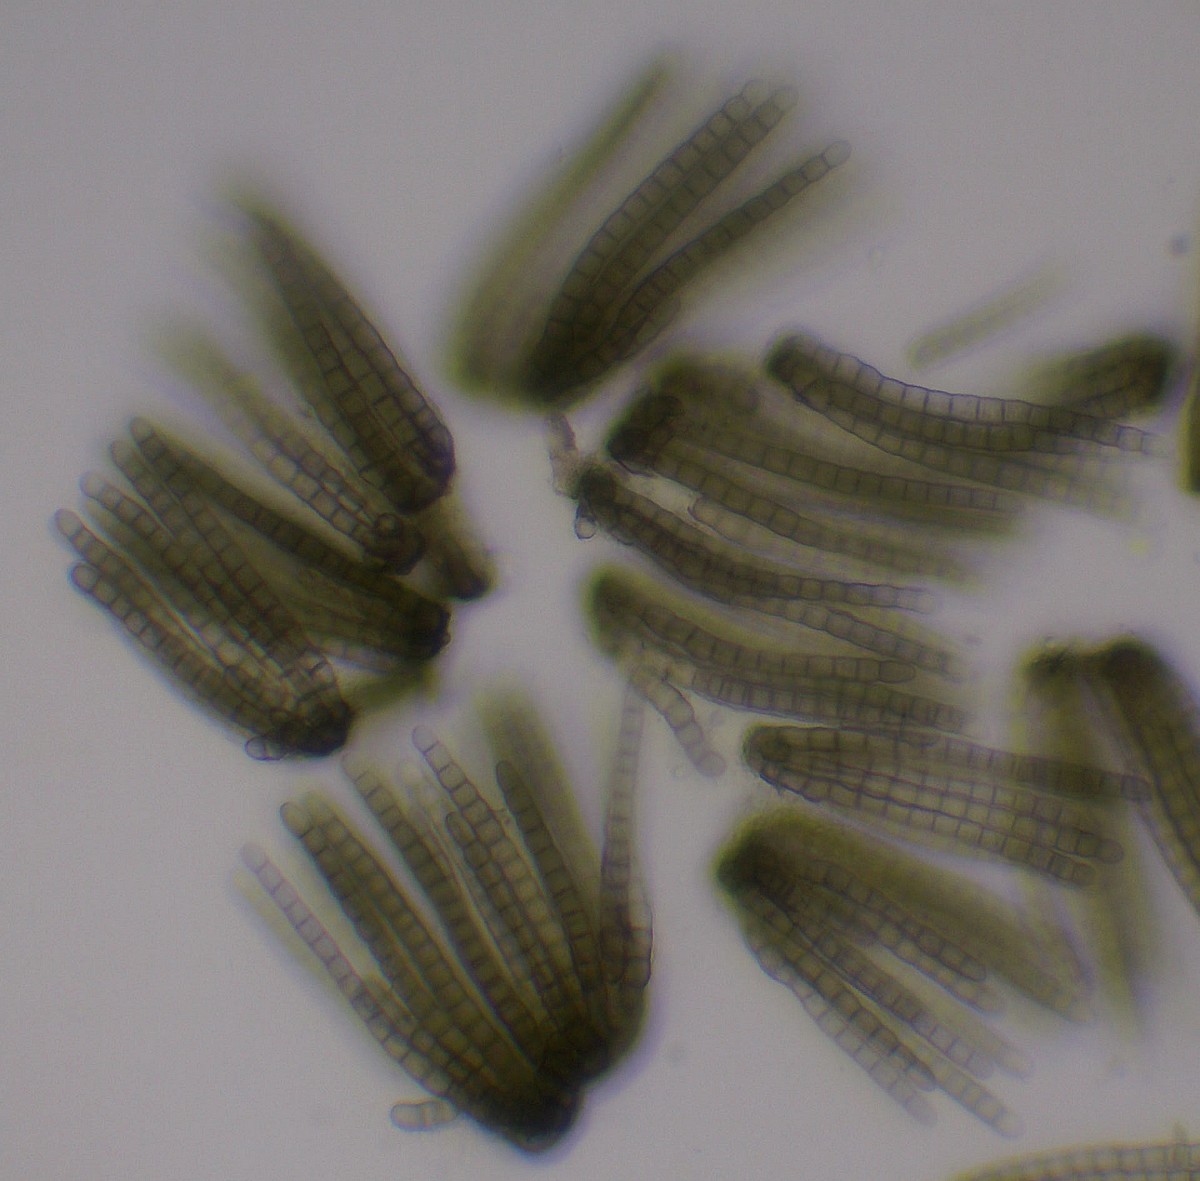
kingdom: Fungi
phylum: Ascomycota
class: Dothideomycetes
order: Pleosporales
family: Cryptocoryneaceae
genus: Cryptocoryneum
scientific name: Cryptocoryneum condensatum
